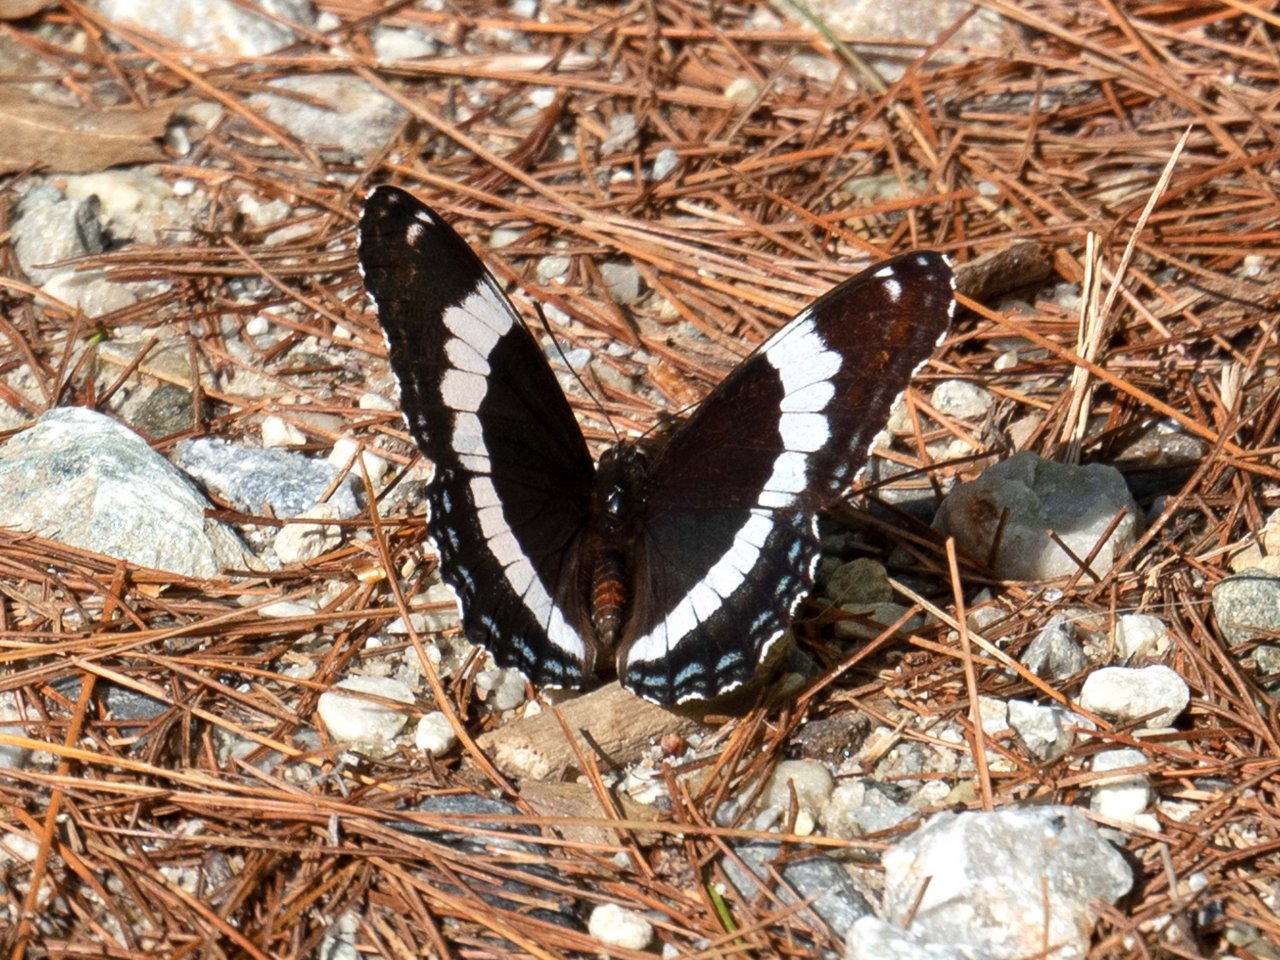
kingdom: Animalia
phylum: Arthropoda
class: Insecta
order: Lepidoptera
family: Nymphalidae
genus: Limenitis
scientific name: Limenitis arthemis
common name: Red-spotted Admiral
